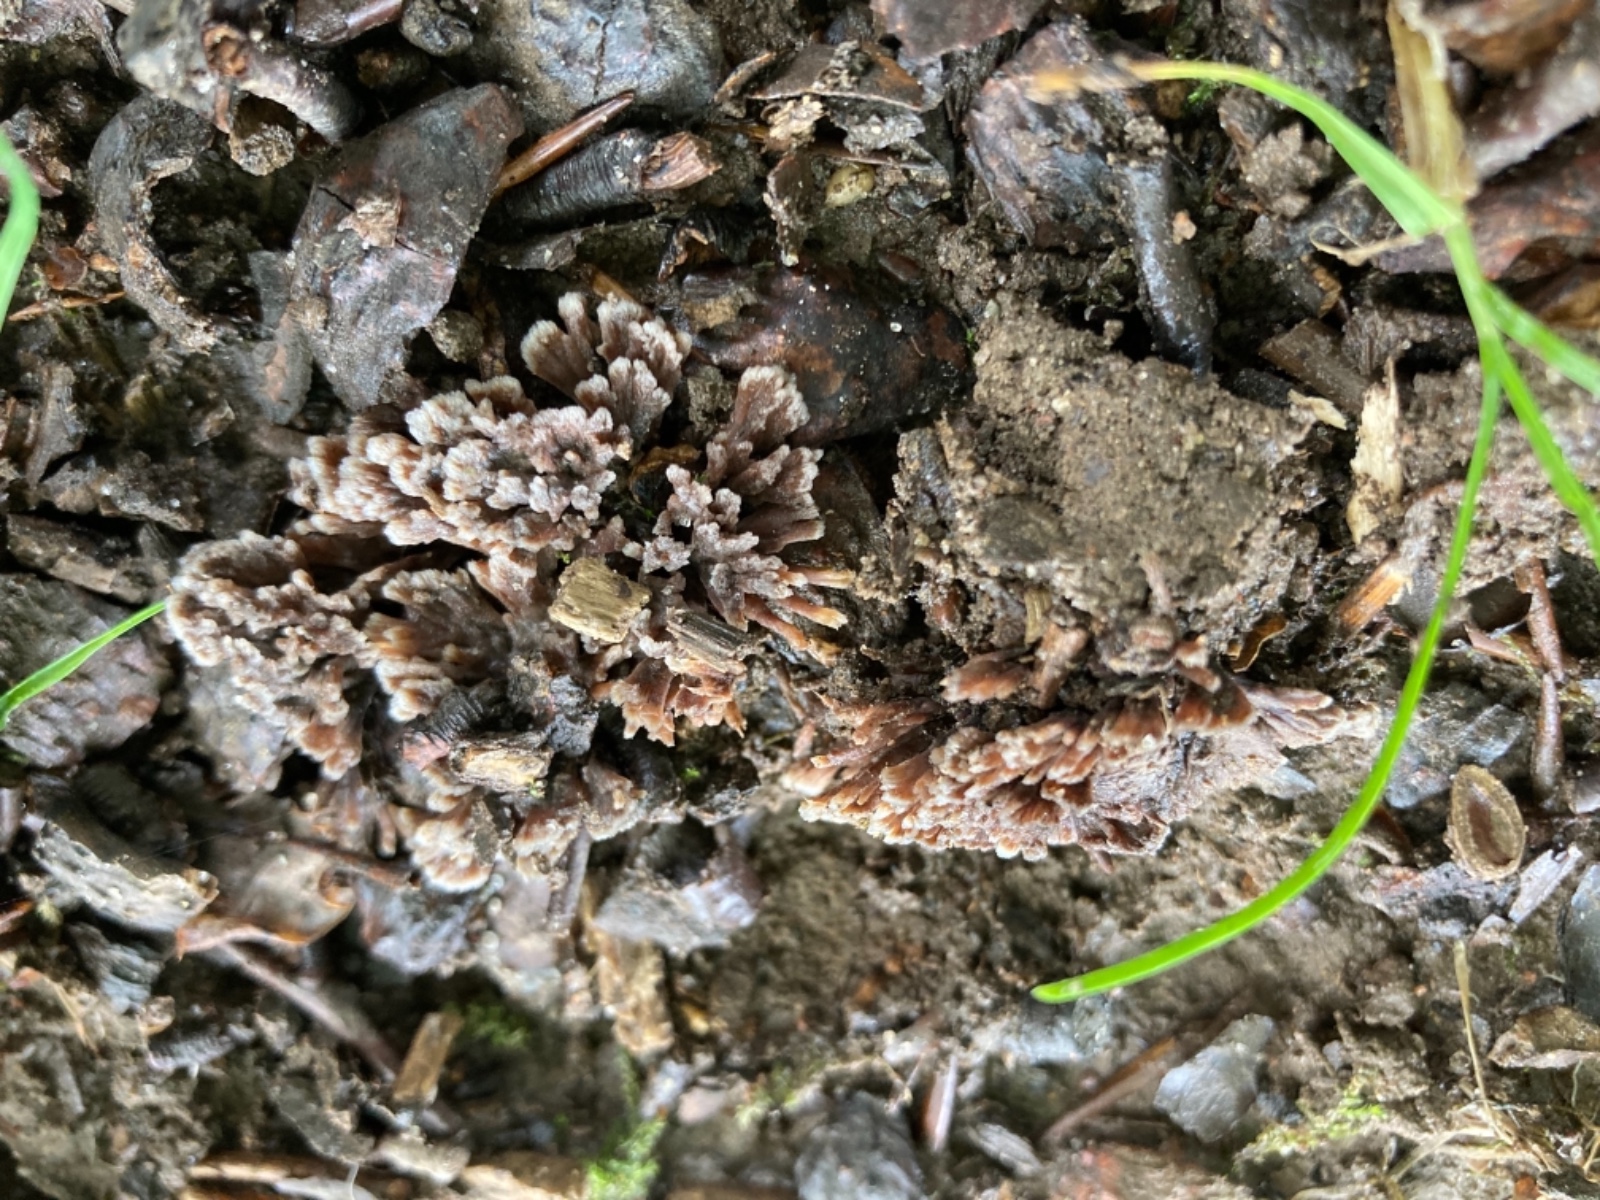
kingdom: Fungi
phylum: Basidiomycota
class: Agaricomycetes
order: Thelephorales
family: Thelephoraceae
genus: Thelephora
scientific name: Thelephora penicillata
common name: fladtrådt frynsesvamp
